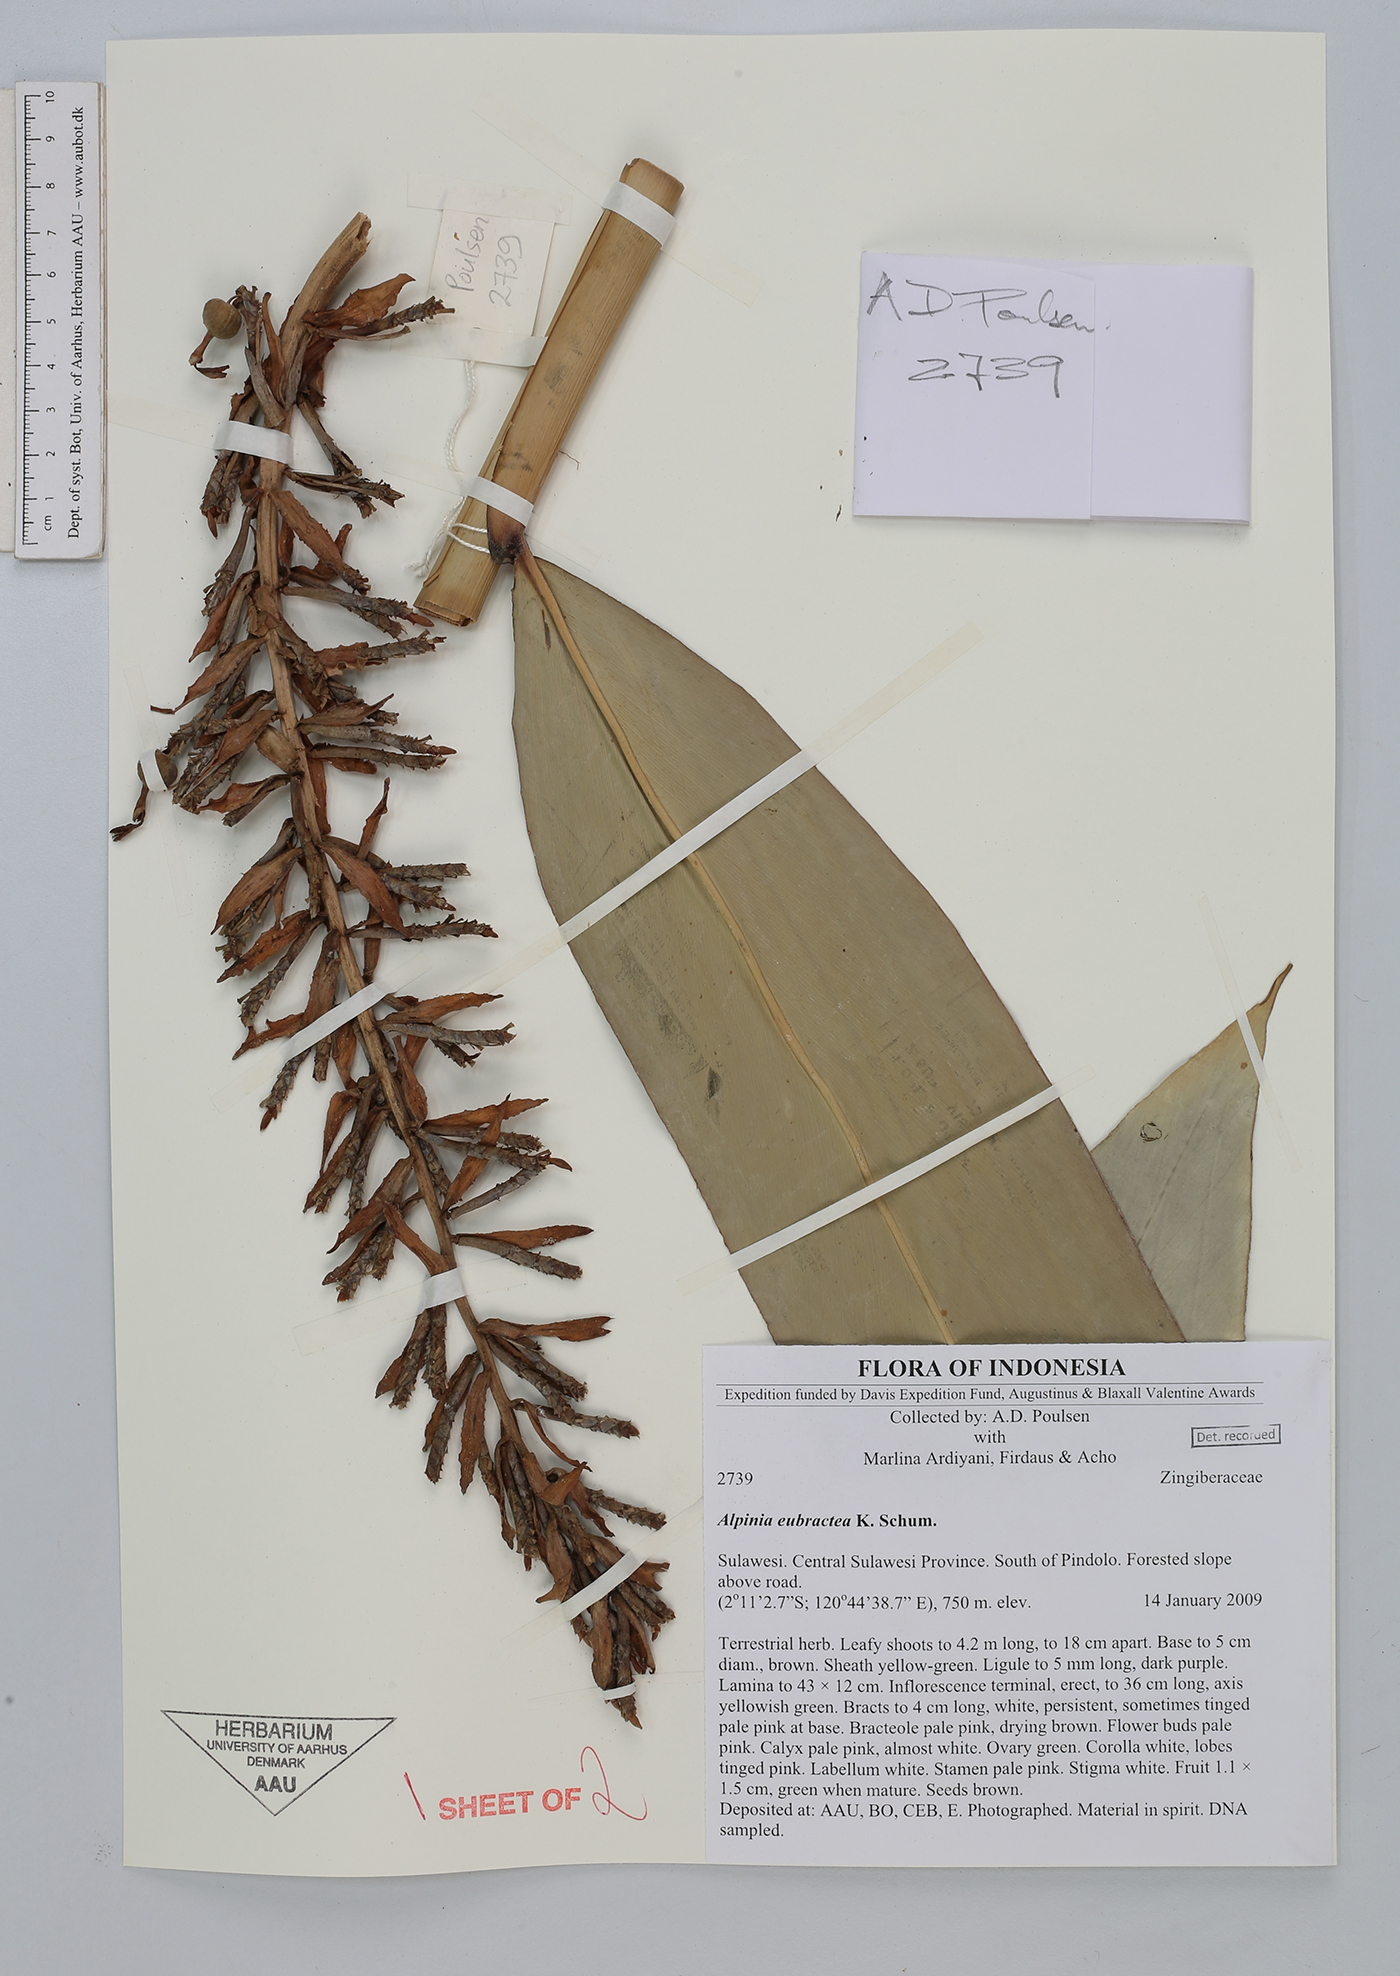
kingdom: Plantae
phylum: Tracheophyta
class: Liliopsida
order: Zingiberales
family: Zingiberaceae
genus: Alpinia
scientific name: Alpinia eubractea
